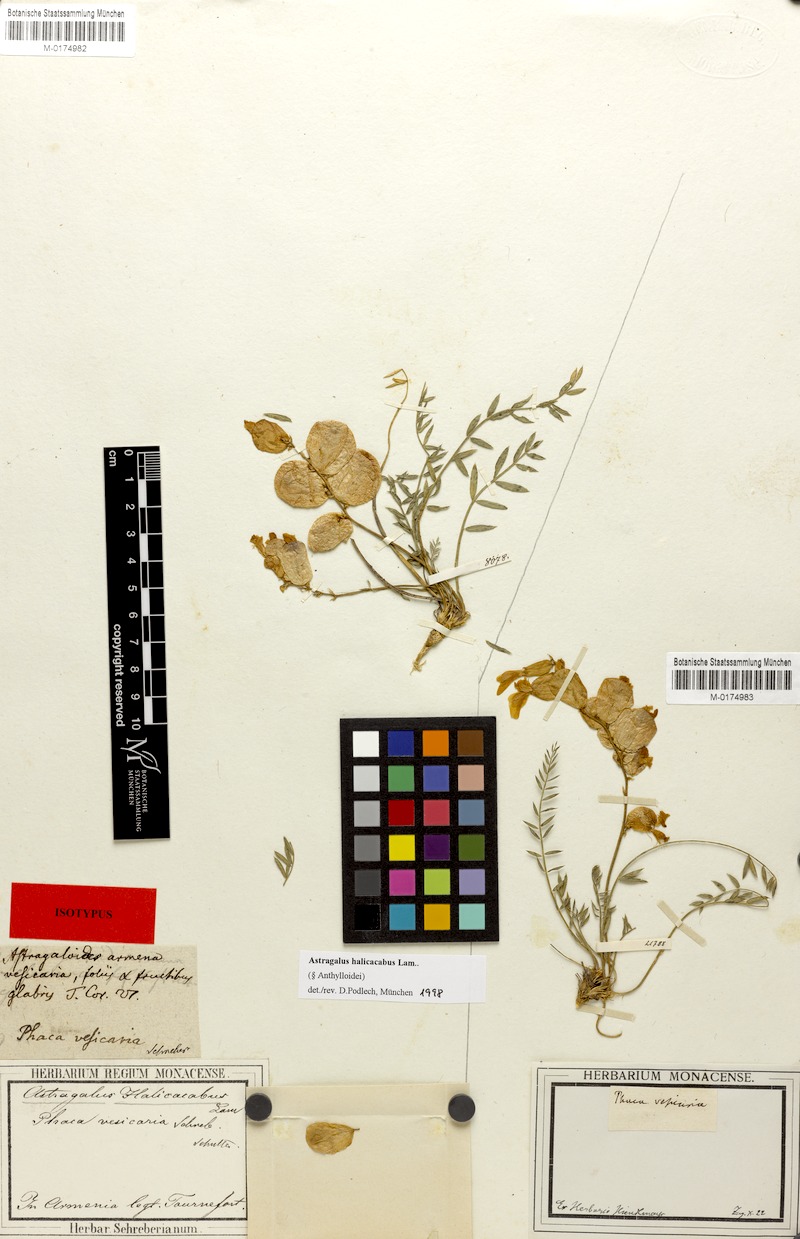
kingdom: Plantae
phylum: Tracheophyta
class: Magnoliopsida
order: Fabales
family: Fabaceae
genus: Astragalus
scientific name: Astragalus halicacabus
